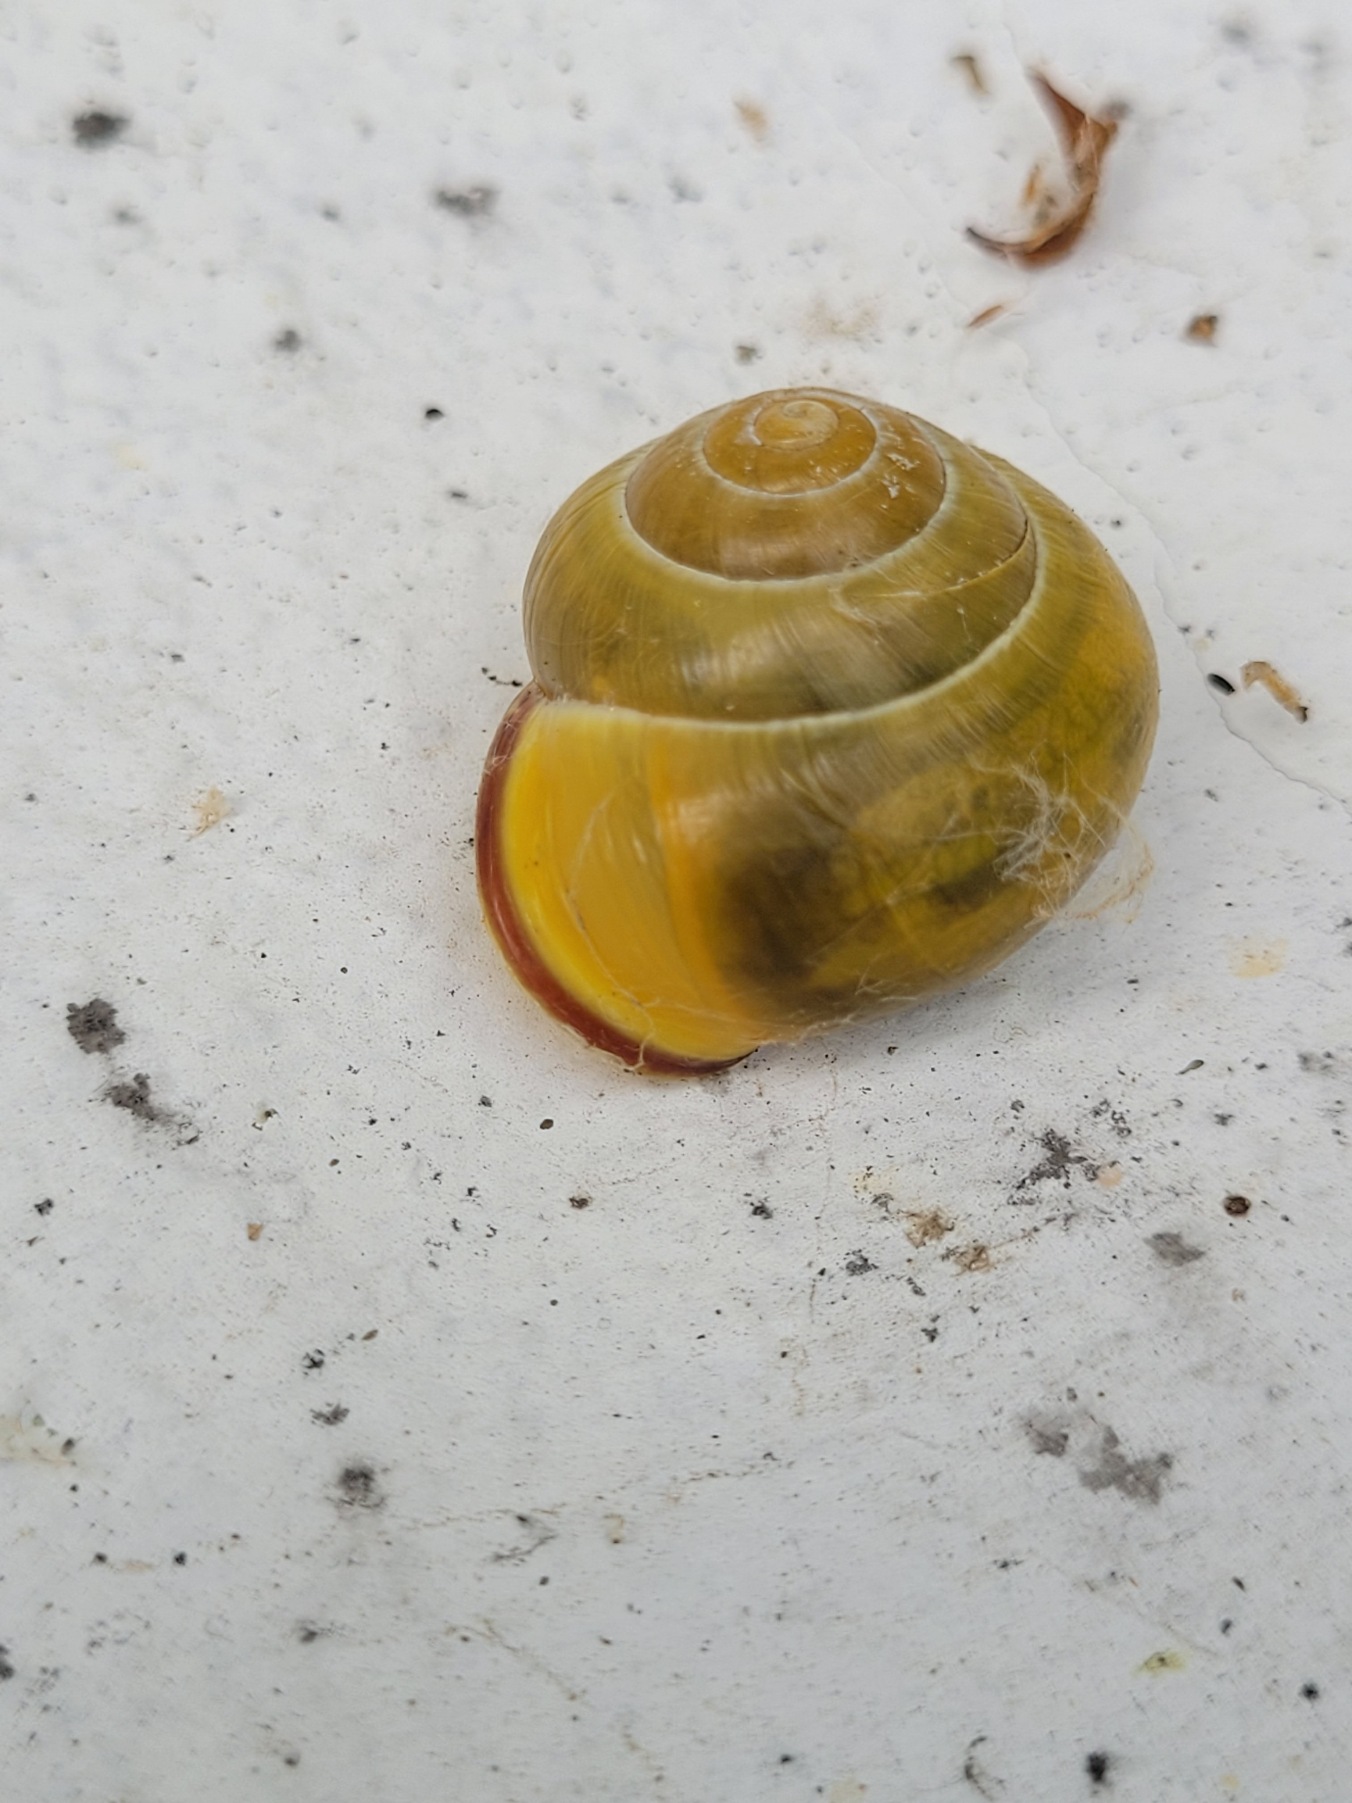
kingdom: Animalia
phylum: Mollusca
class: Gastropoda
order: Stylommatophora
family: Helicidae
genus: Cepaea
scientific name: Cepaea nemoralis
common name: Lundsnegl
